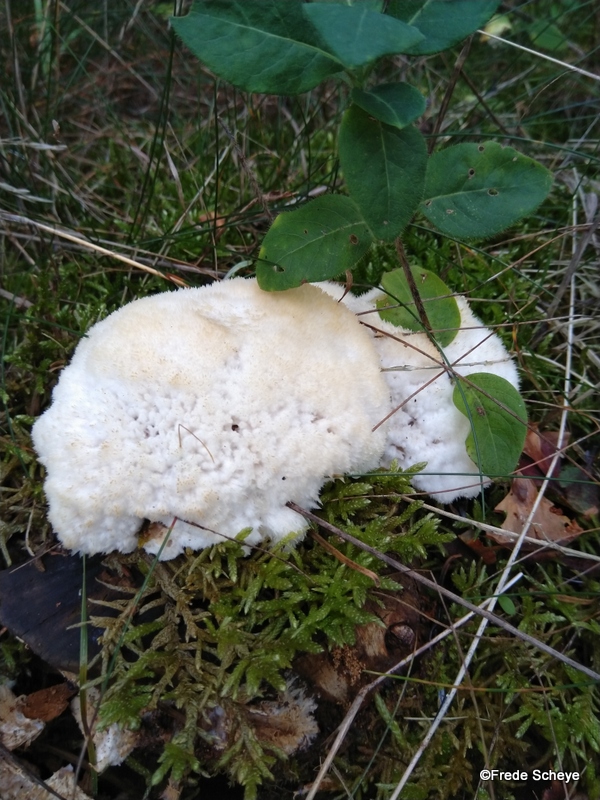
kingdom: Fungi
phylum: Basidiomycota
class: Agaricomycetes
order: Polyporales
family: Dacryobolaceae
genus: Postia
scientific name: Postia ptychogaster
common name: støvende kødporesvamp
